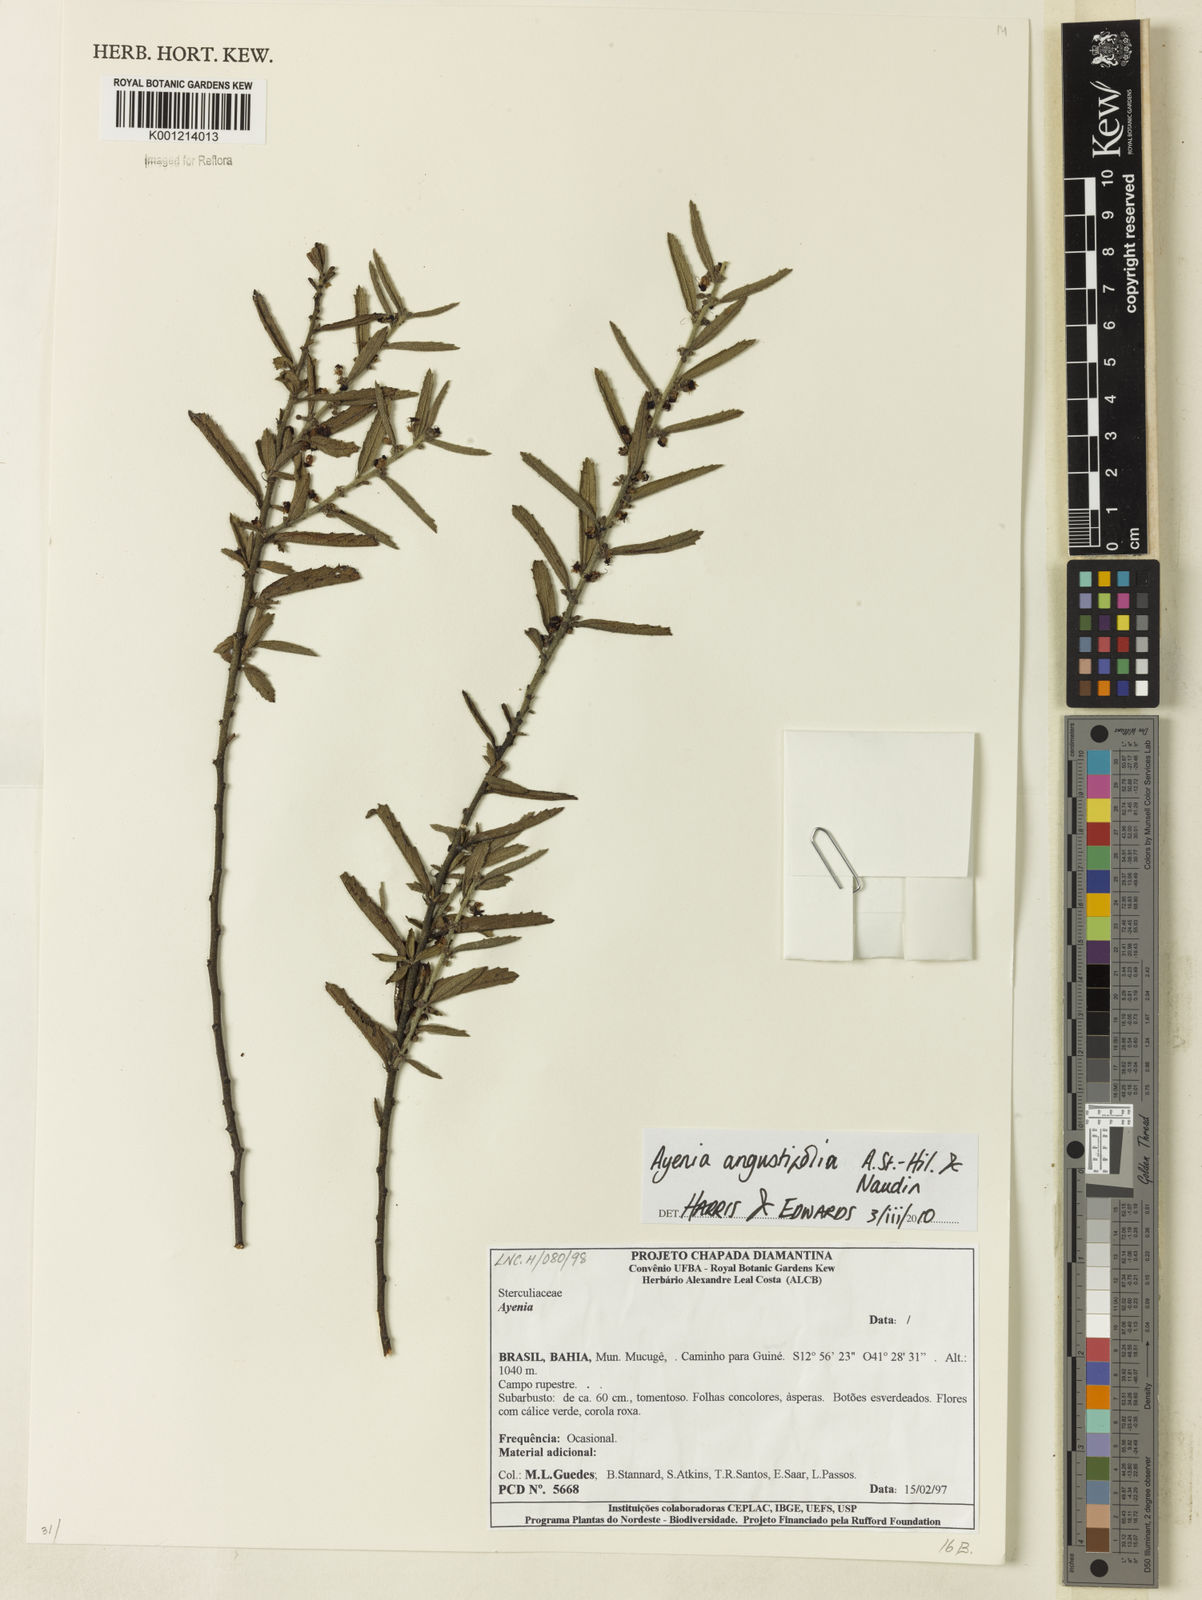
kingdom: Plantae
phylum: Tracheophyta
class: Magnoliopsida
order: Malvales
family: Malvaceae
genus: Ayenia
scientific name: Ayenia angustifolia
